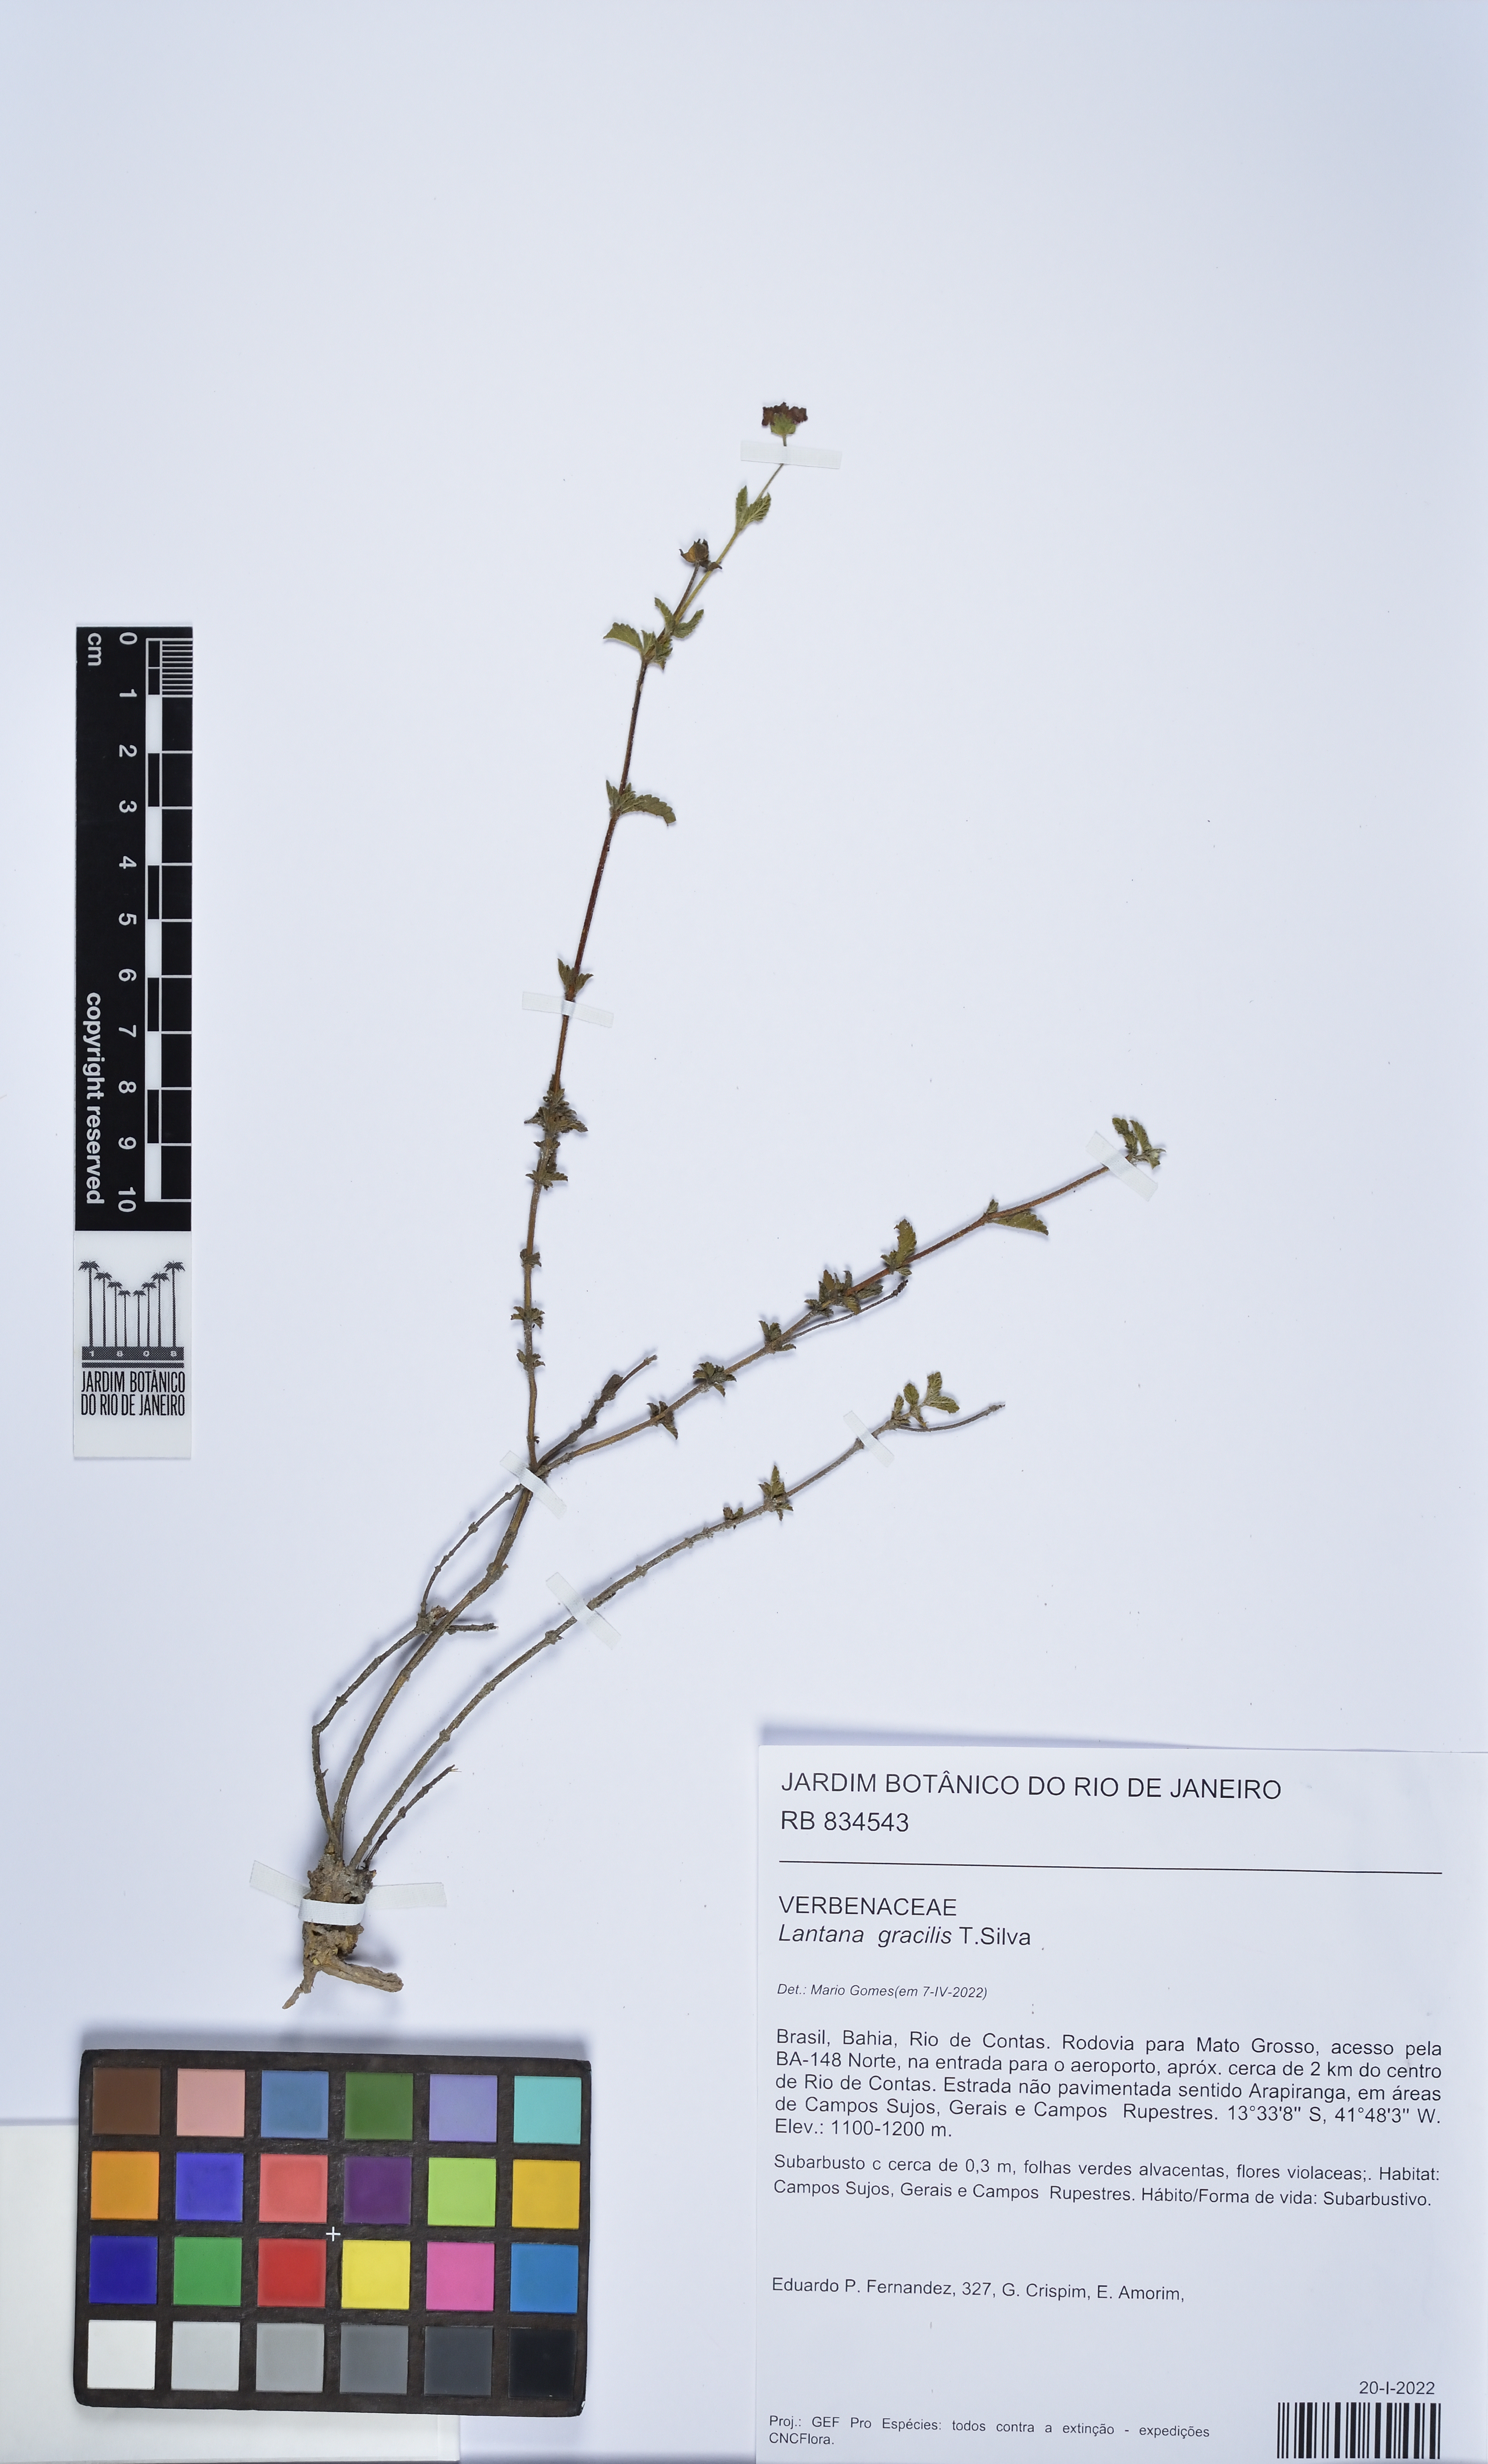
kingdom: Plantae
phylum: Tracheophyta
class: Magnoliopsida
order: Lamiales
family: Verbenaceae
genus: Lantana
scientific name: Lantana gracilis
